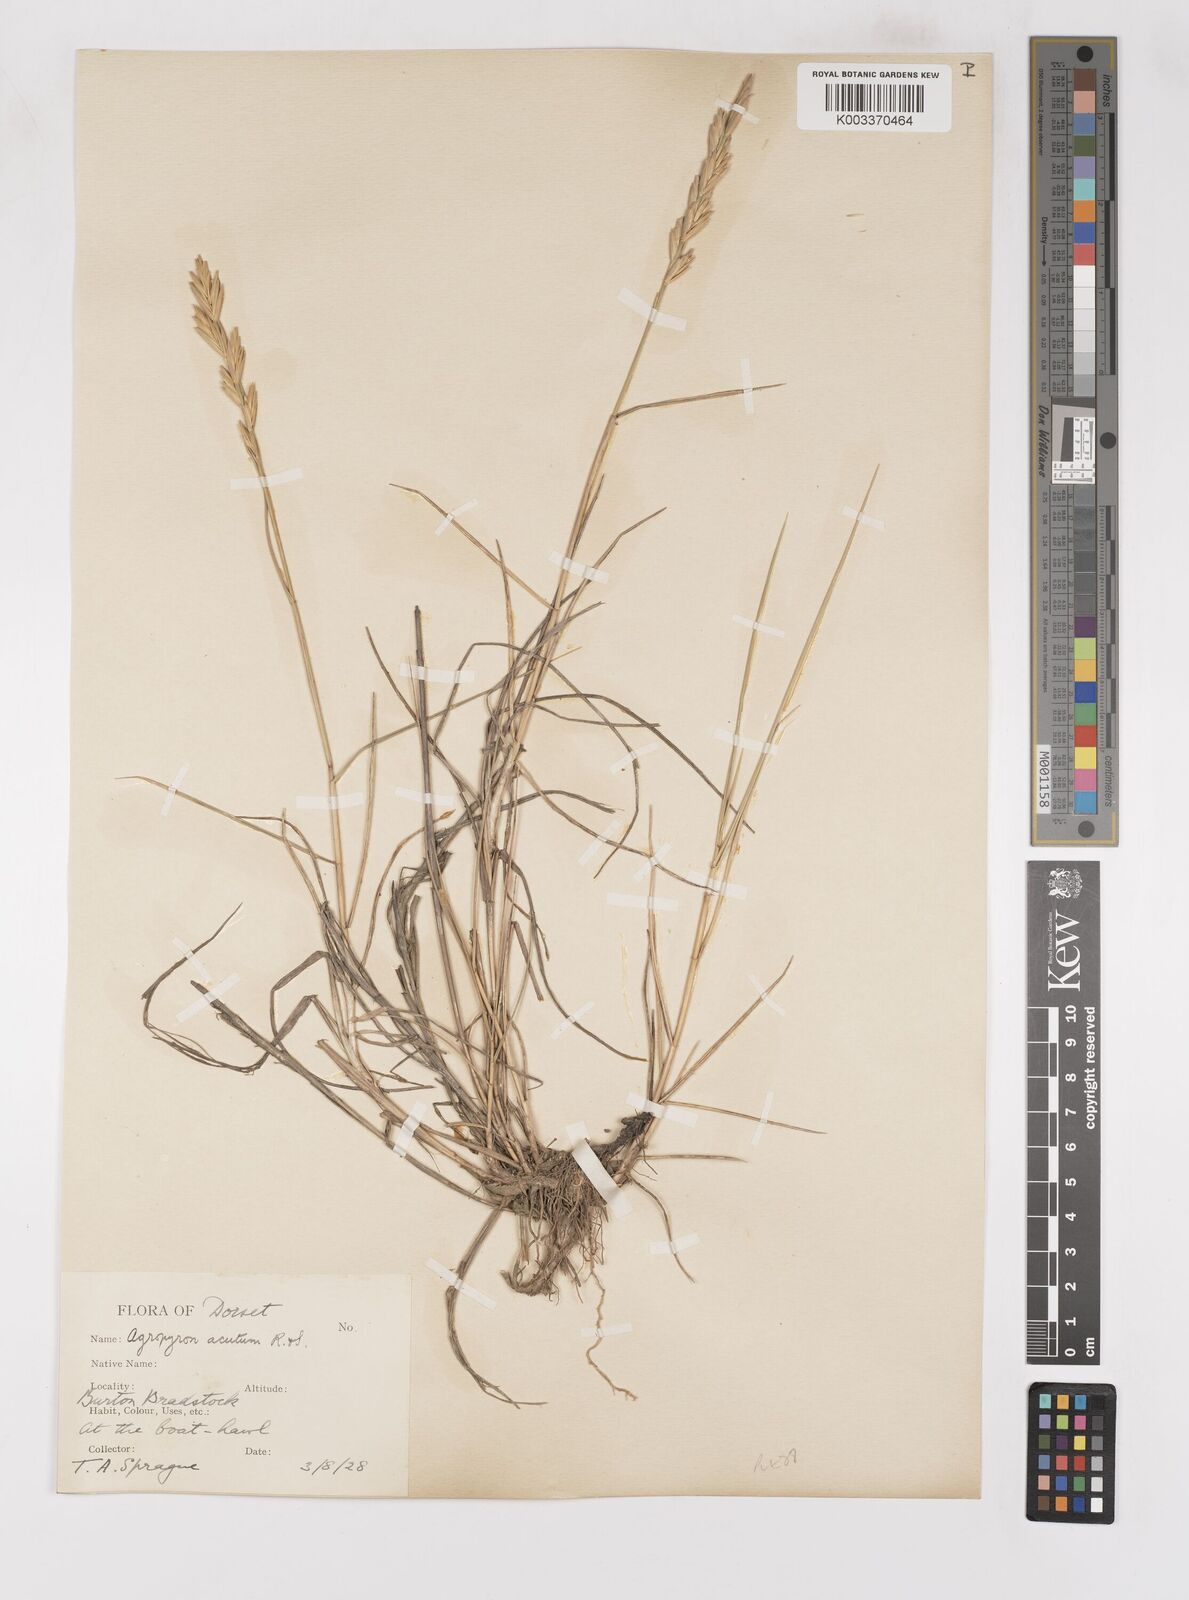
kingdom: Plantae
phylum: Tracheophyta
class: Liliopsida
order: Poales
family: Poaceae
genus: Thinoelymus
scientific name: Thinoelymus obtusiusculus
